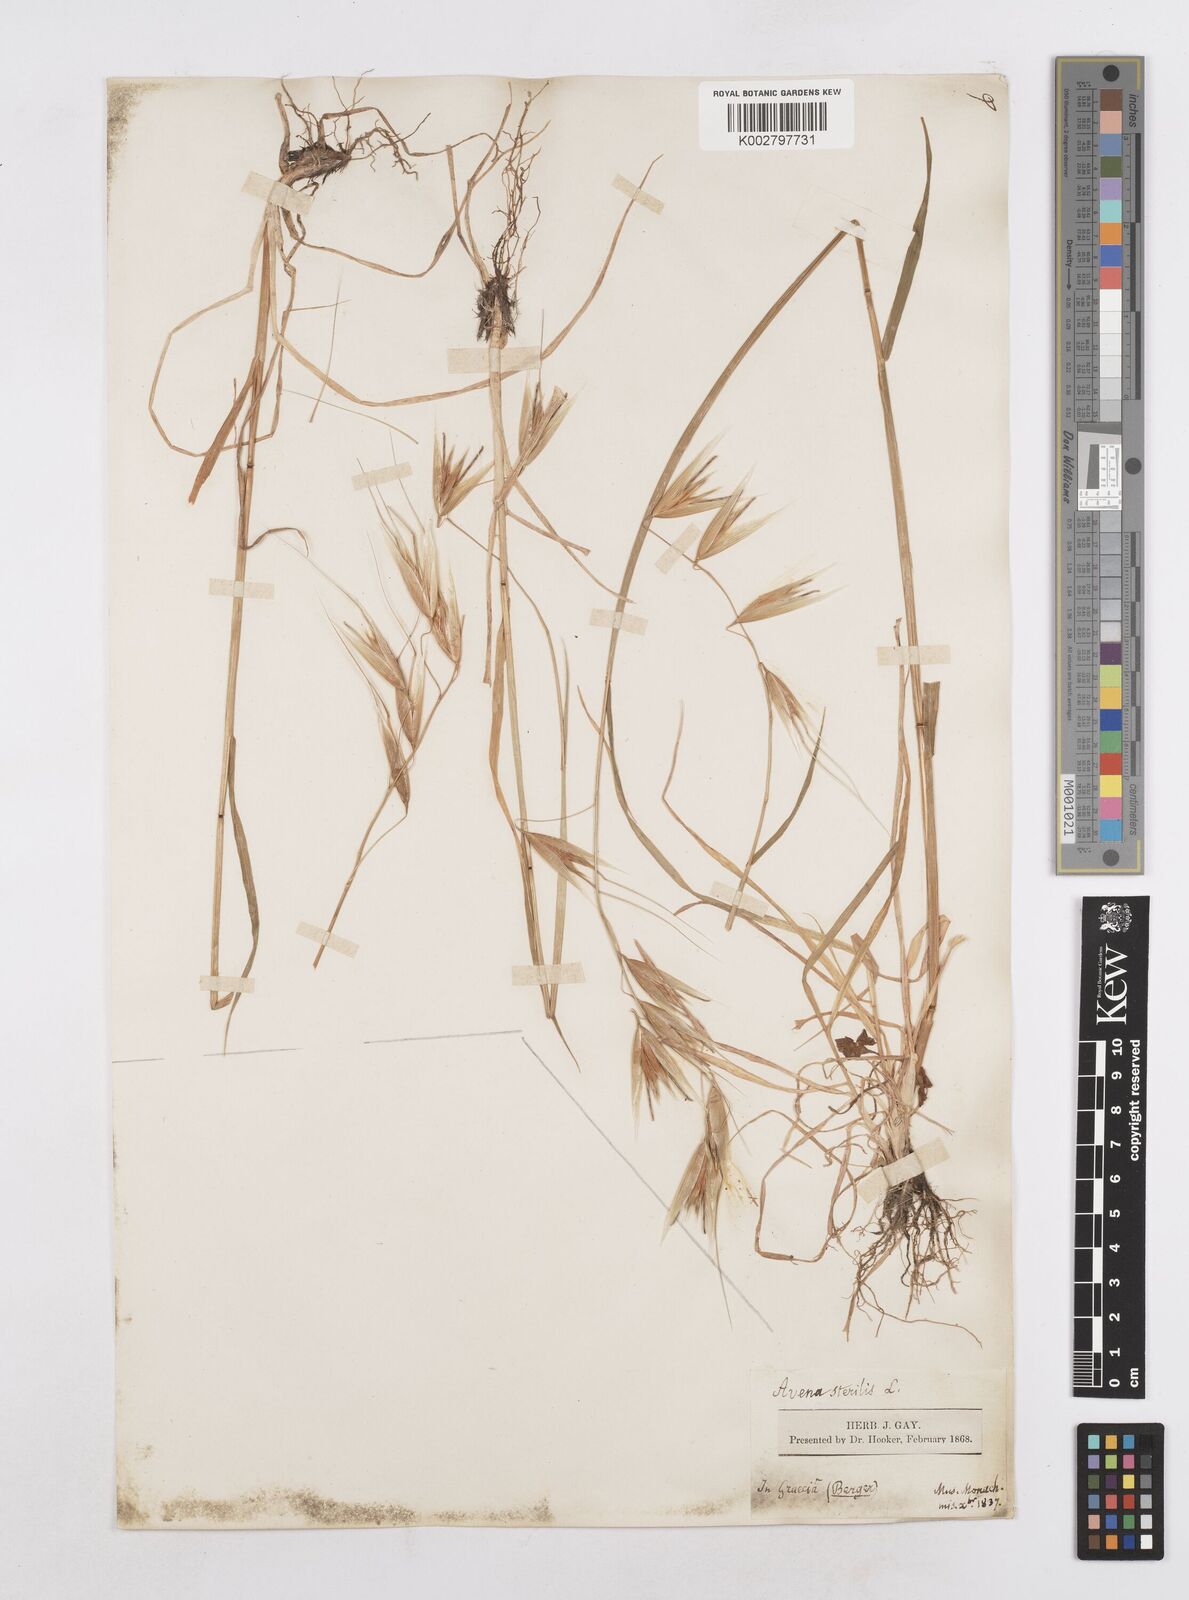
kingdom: Plantae
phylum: Tracheophyta
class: Liliopsida
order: Poales
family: Poaceae
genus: Avena
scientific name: Avena sterilis
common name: Animated oat
